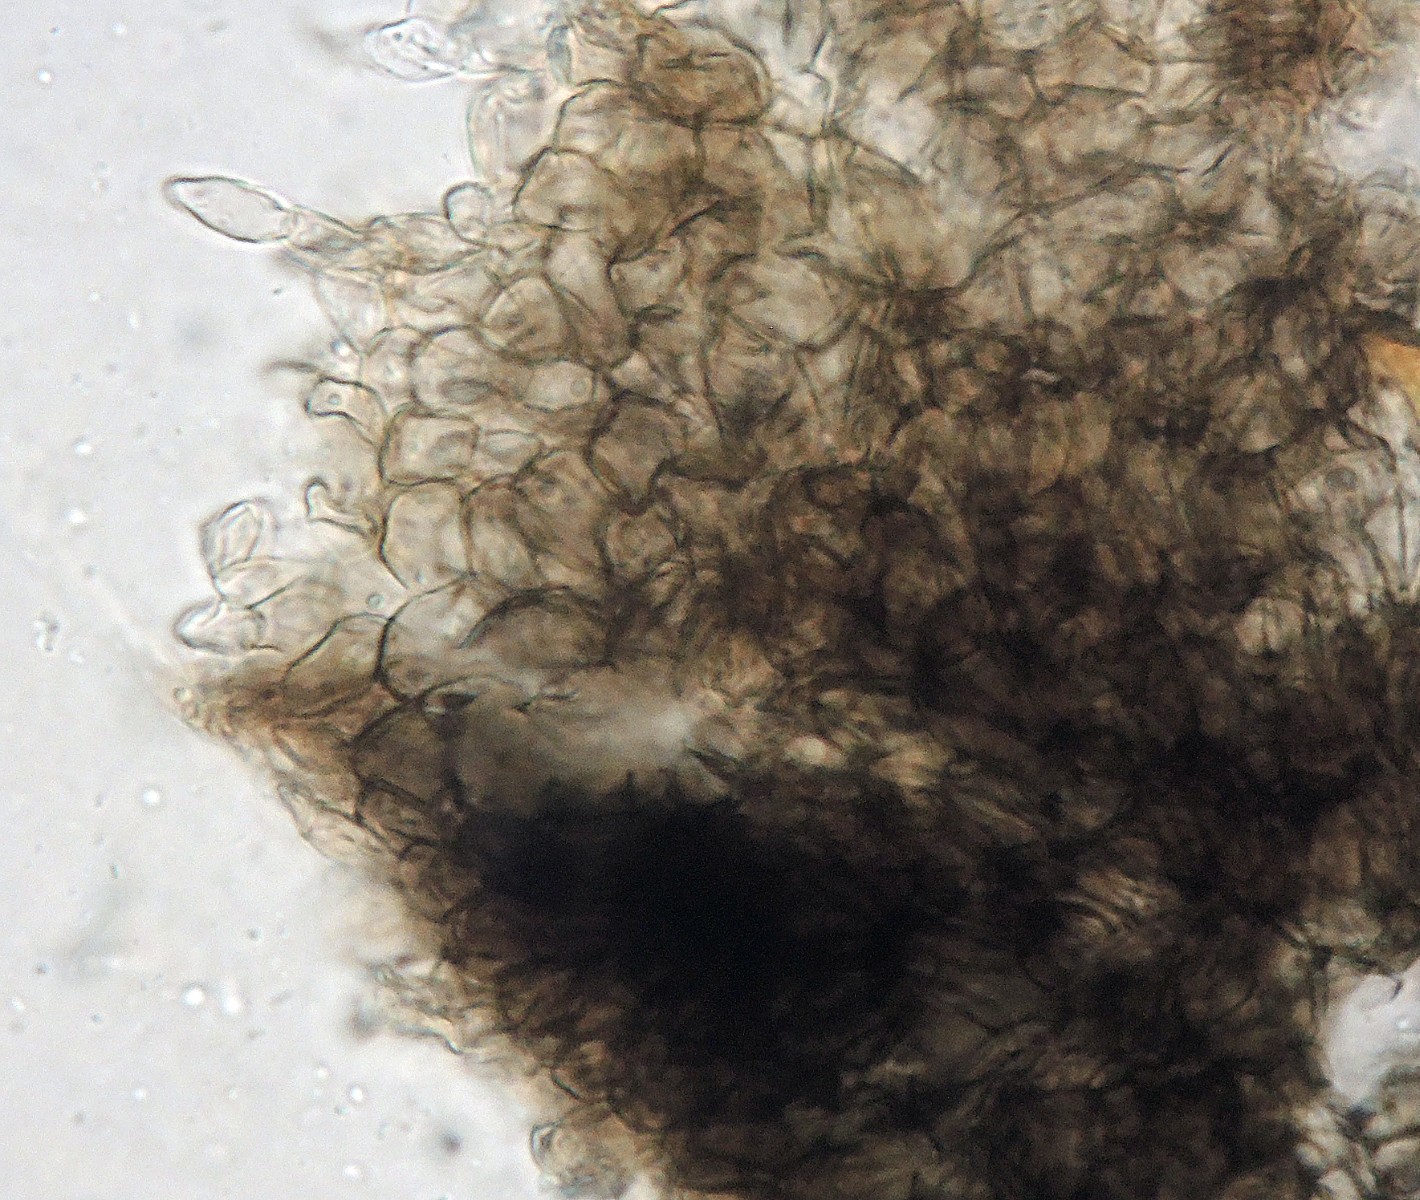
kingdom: Fungi
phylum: Ascomycota
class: Leotiomycetes
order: Helotiales
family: Ploettnerulaceae
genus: Pyrenopeziza
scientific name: Pyrenopeziza pulveracea
